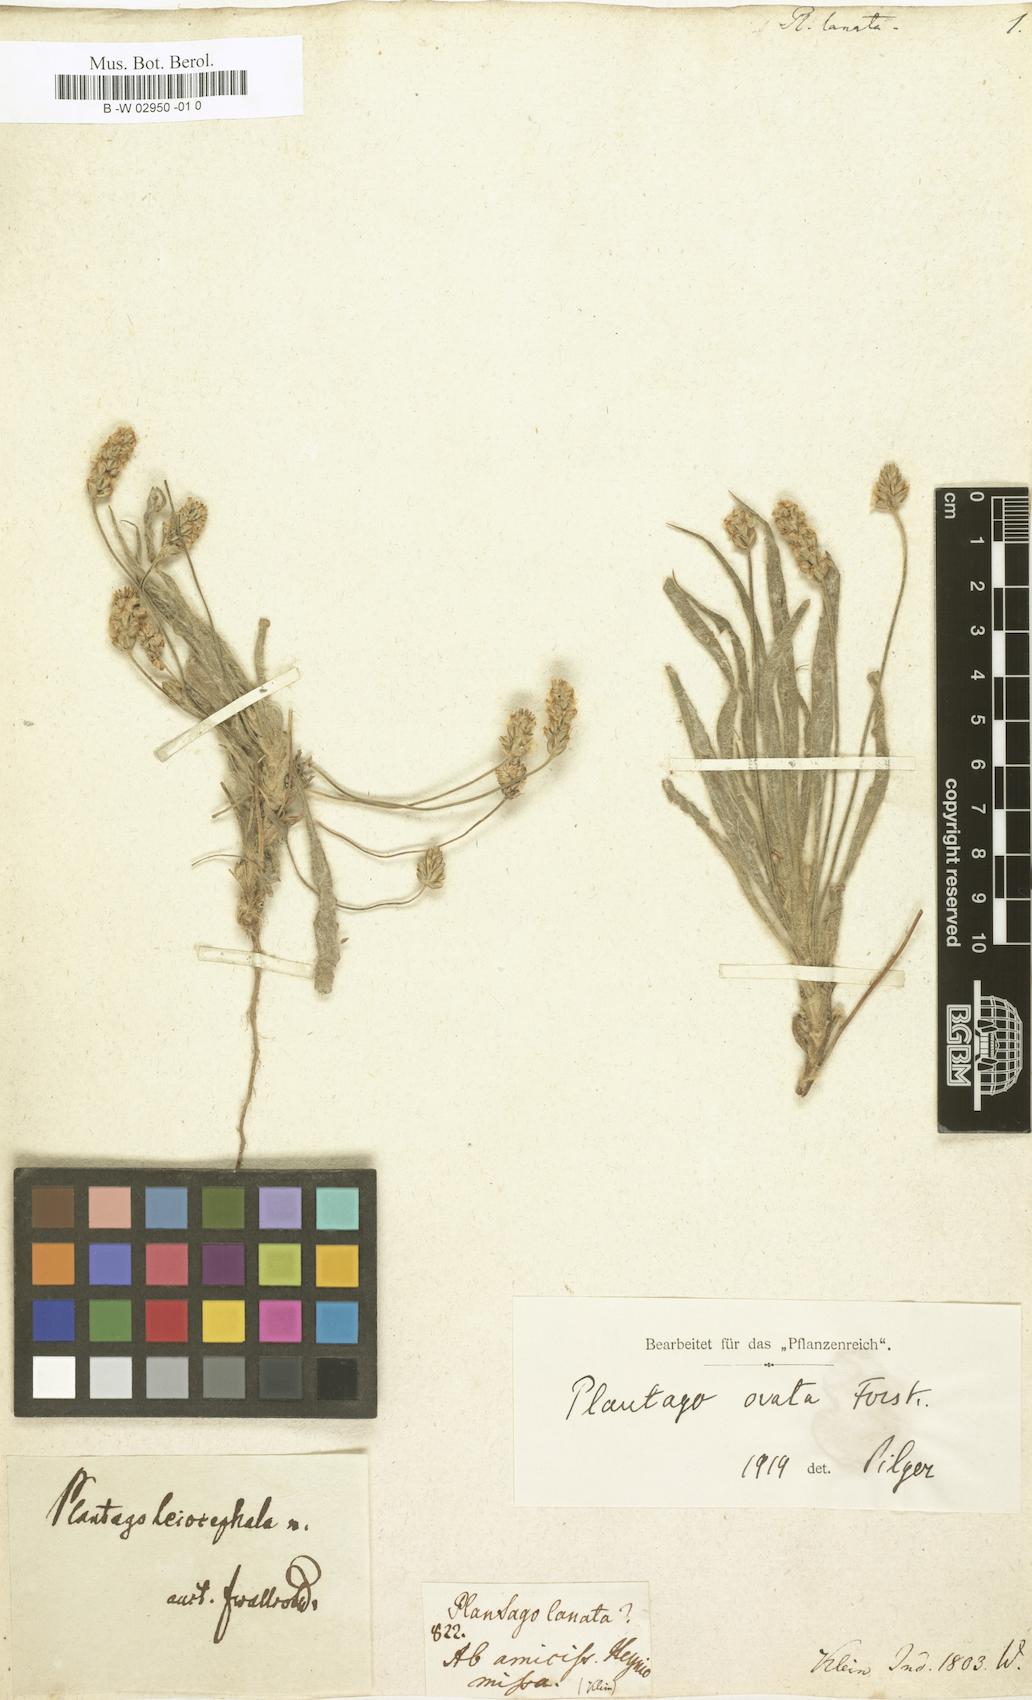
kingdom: Plantae
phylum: Tracheophyta
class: Magnoliopsida
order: Lamiales
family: Plantaginaceae
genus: Plantago
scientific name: Plantago
